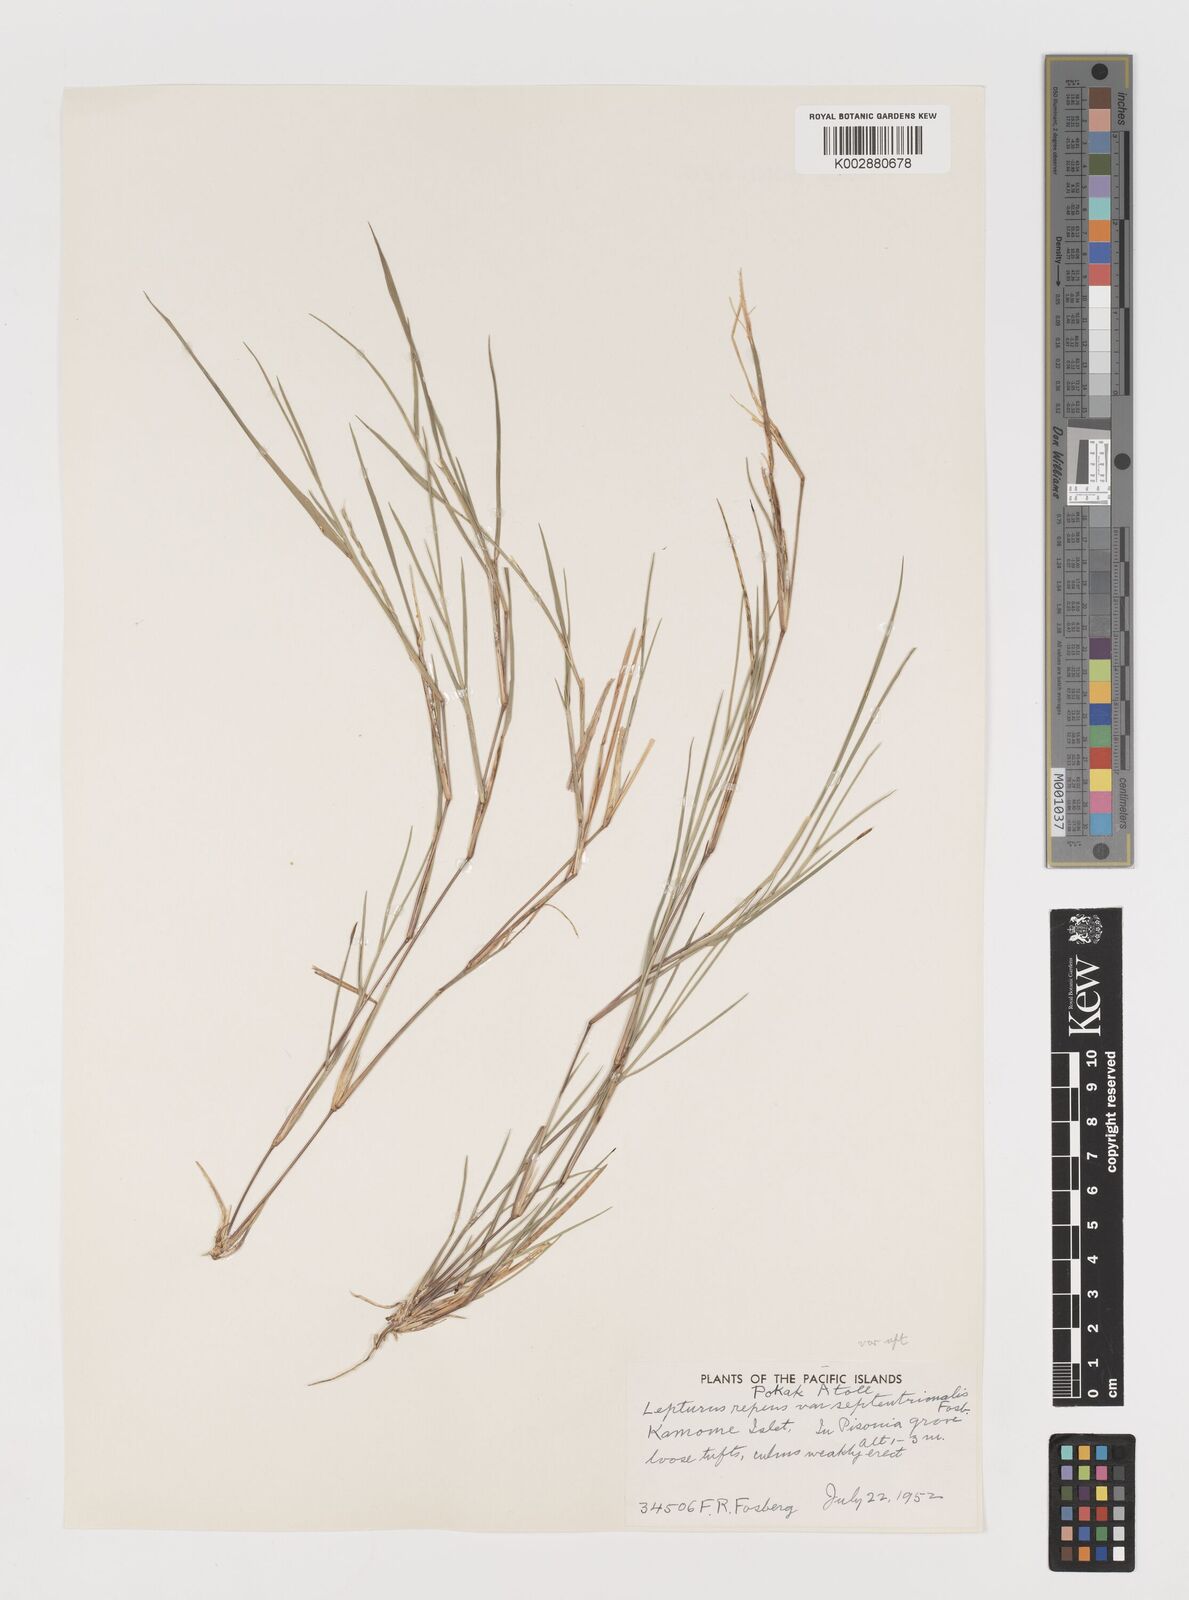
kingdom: Plantae
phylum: Tracheophyta
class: Liliopsida
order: Poales
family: Poaceae
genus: Lepturus
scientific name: Lepturus repens
